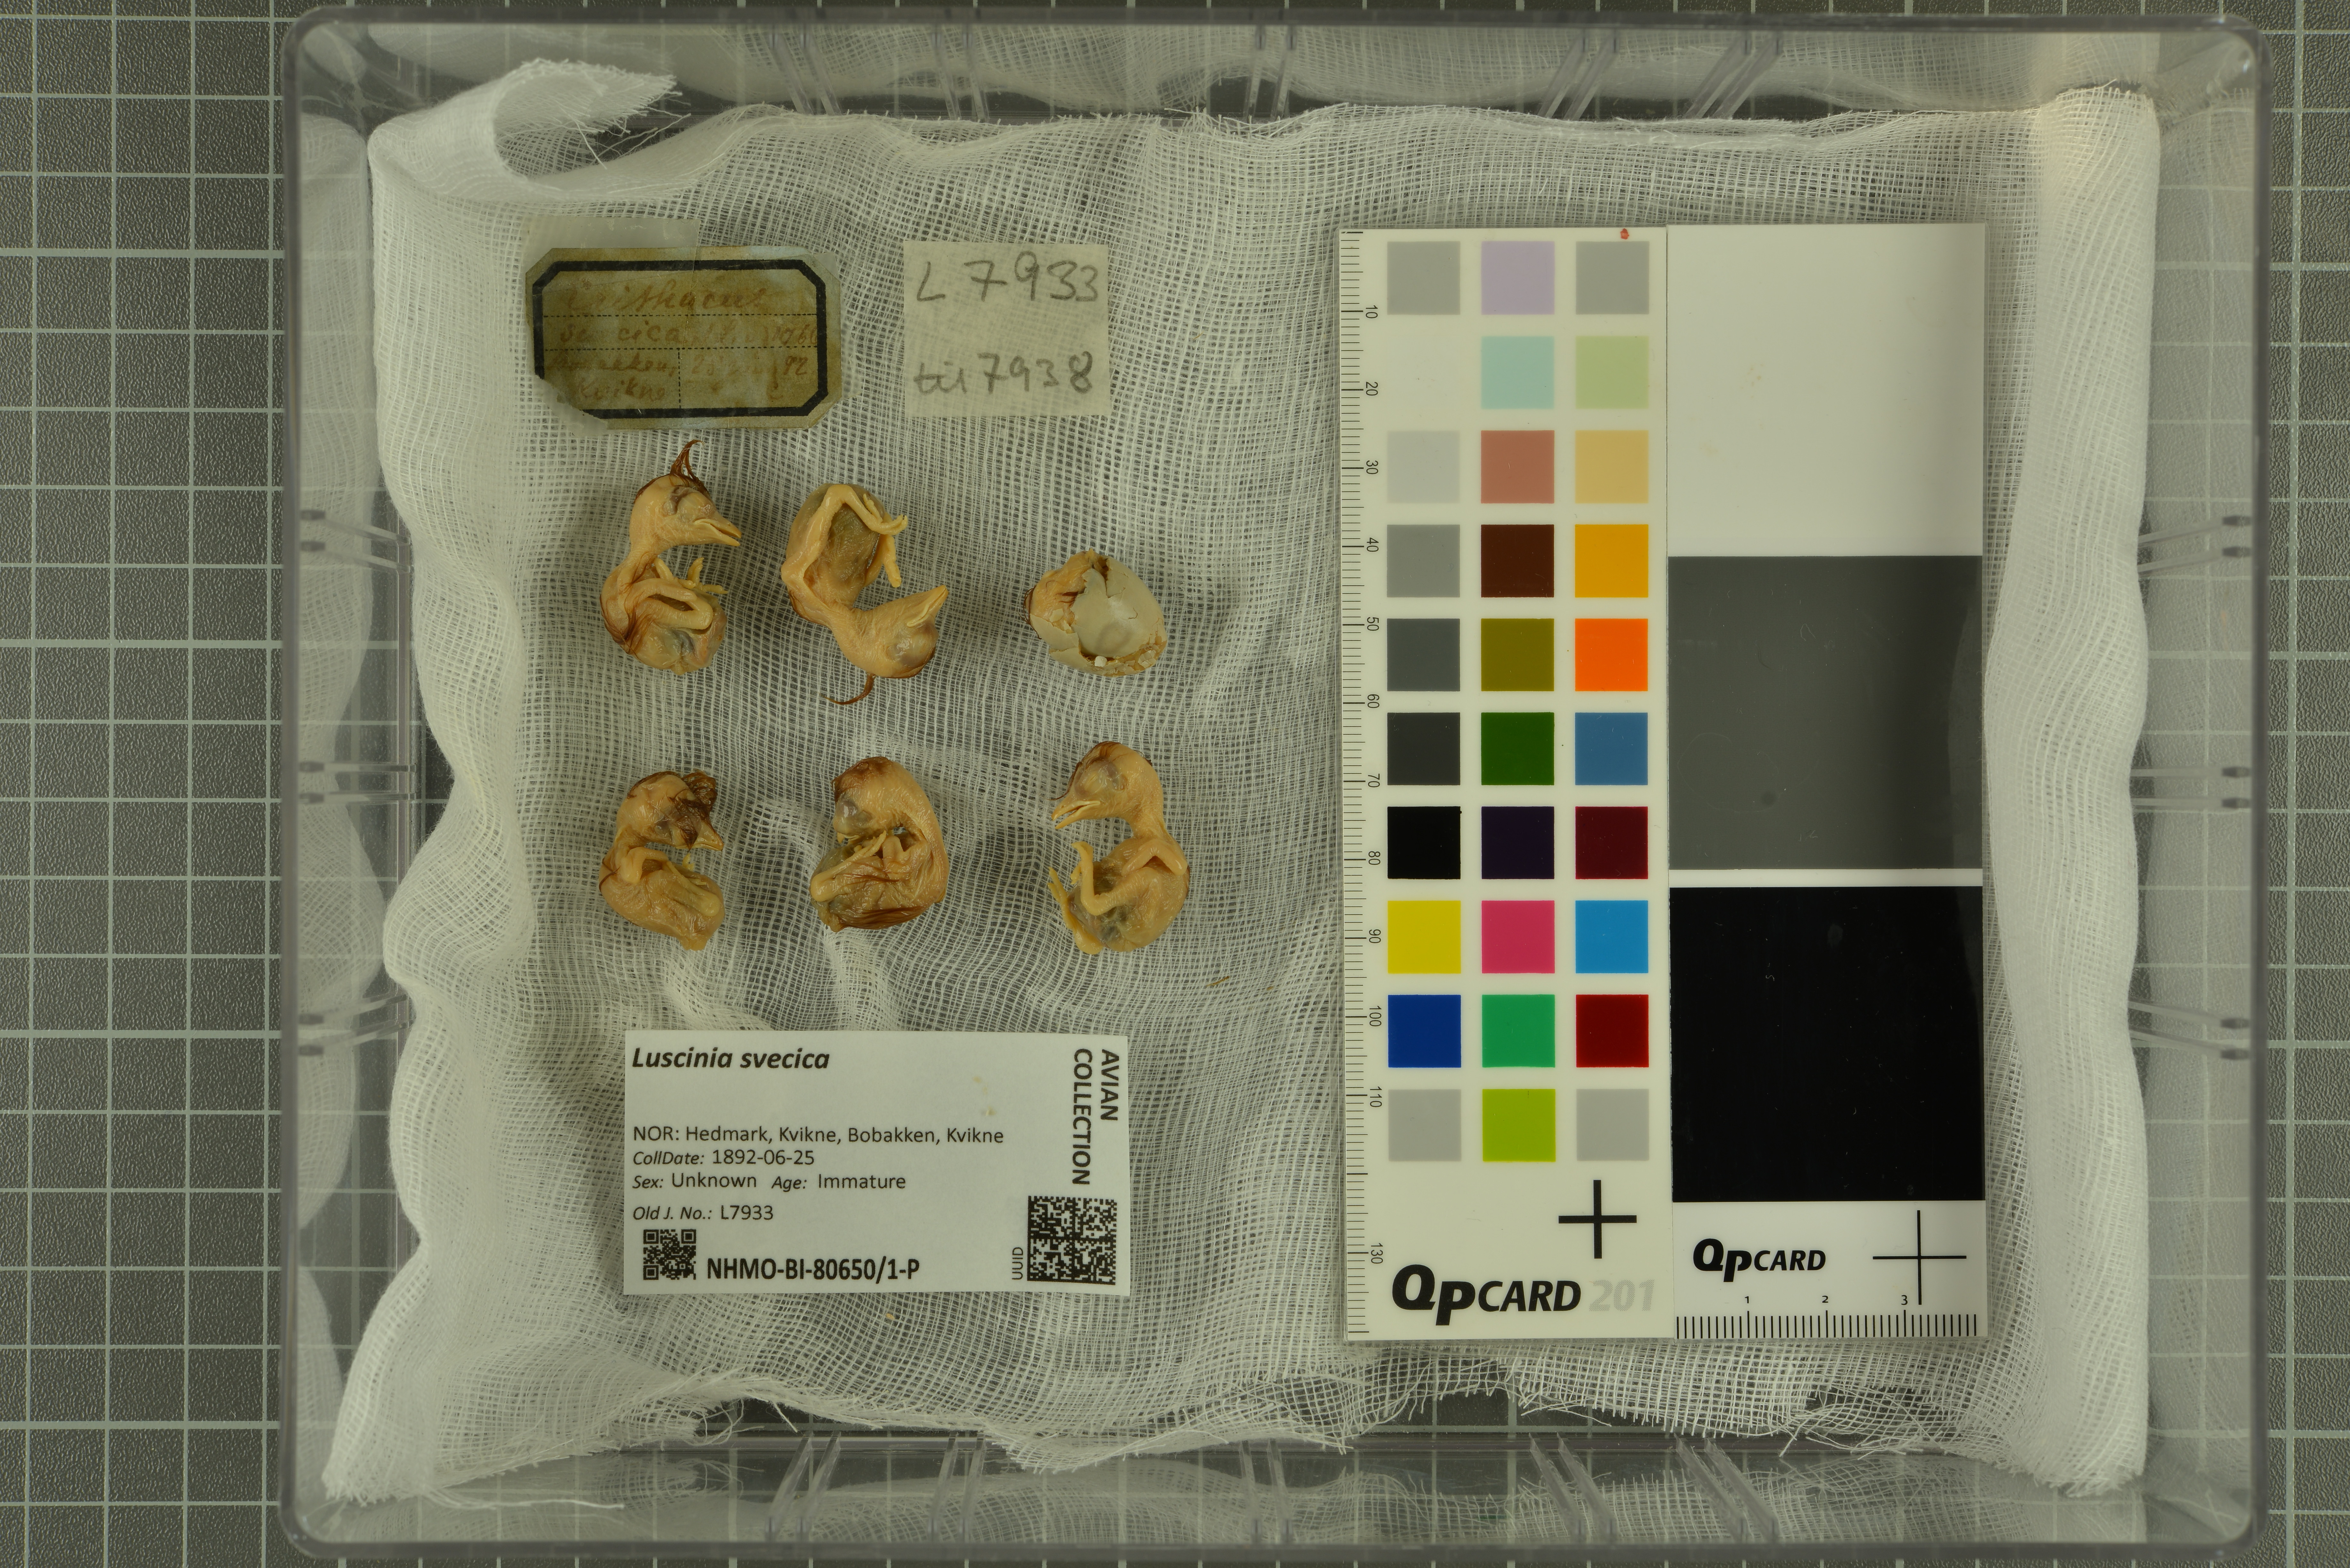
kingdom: Animalia
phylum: Chordata
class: Aves
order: Passeriformes
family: Muscicapidae
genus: Luscinia
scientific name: Luscinia svecica
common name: Bluethroat
